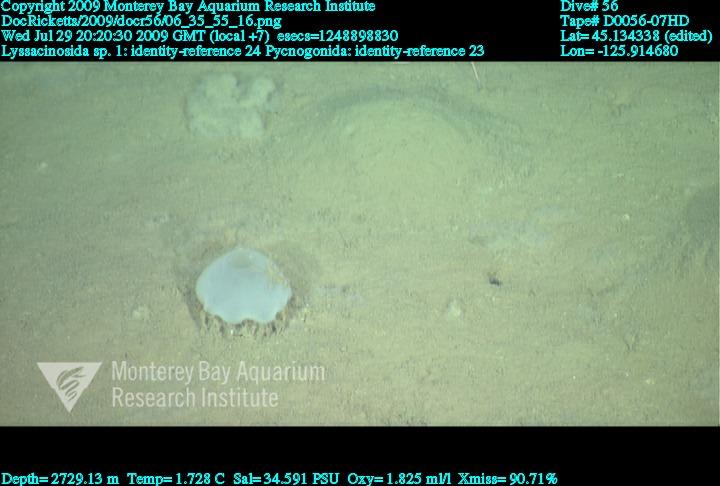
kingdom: Animalia
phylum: Porifera
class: Hexactinellida
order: Lyssacinosida
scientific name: Lyssacinosida
